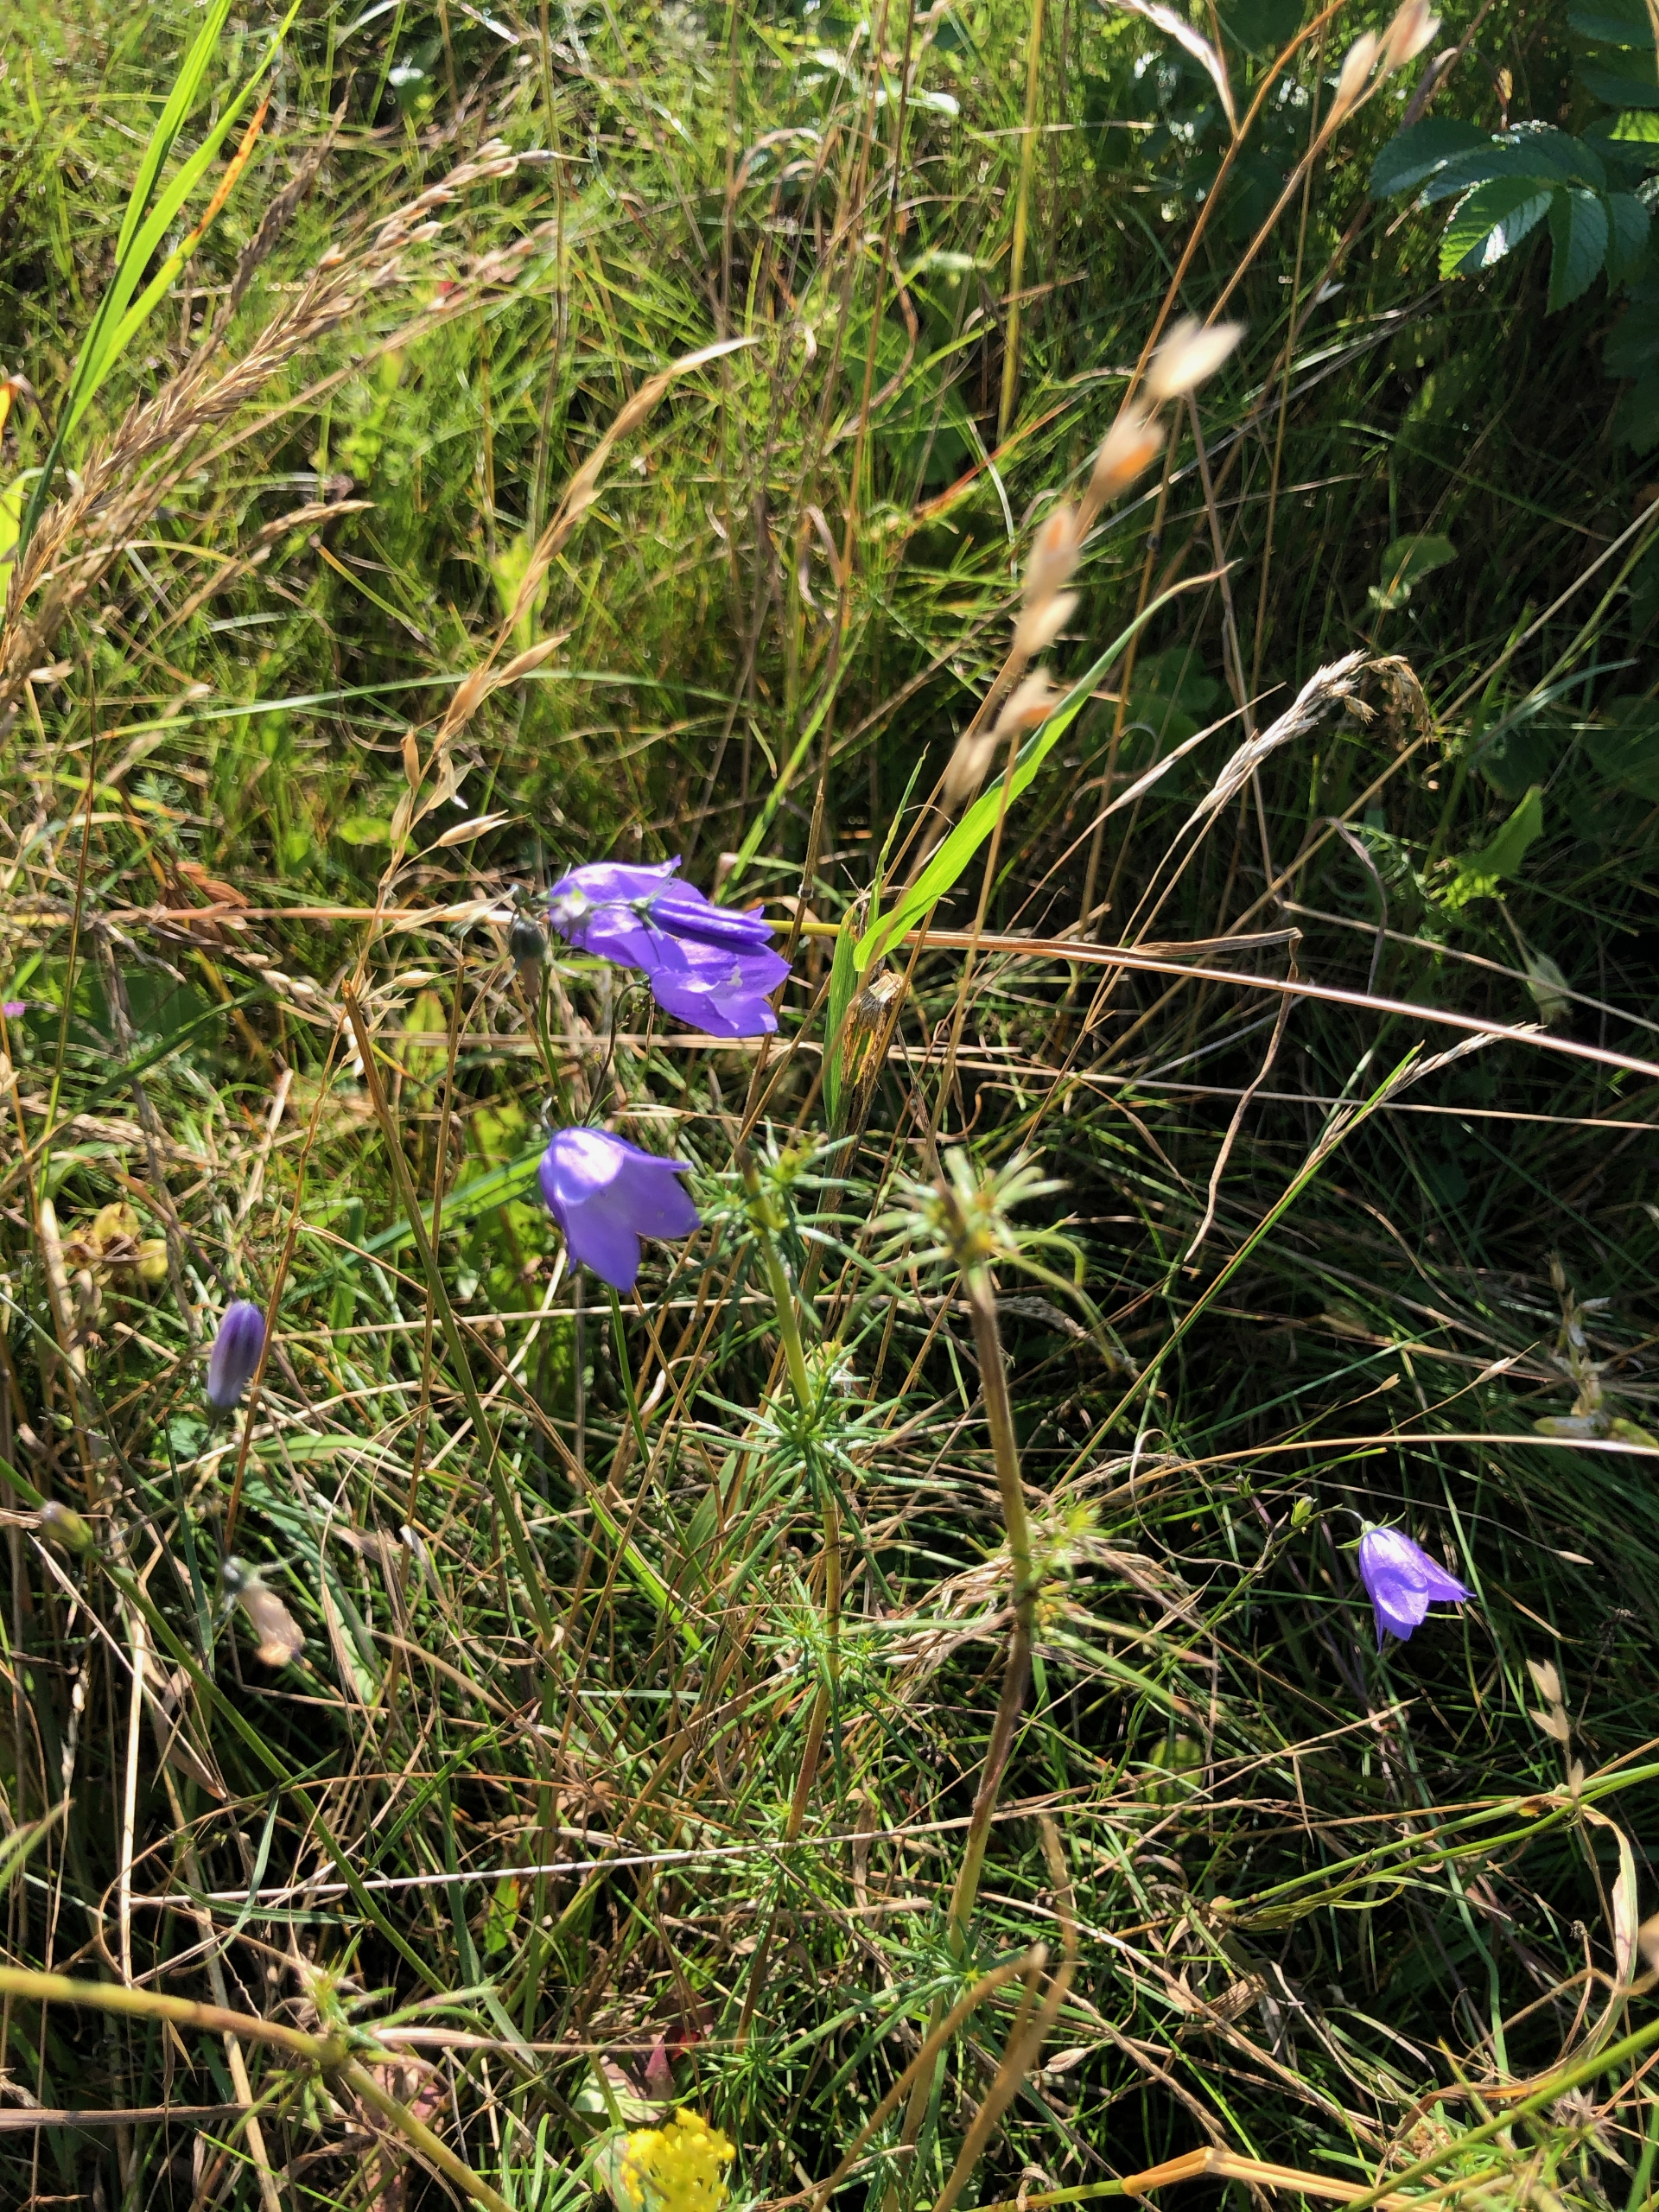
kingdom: Plantae
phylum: Tracheophyta
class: Magnoliopsida
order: Asterales
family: Campanulaceae
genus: Campanula
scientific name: Campanula rotundifolia
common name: Liden klokke
